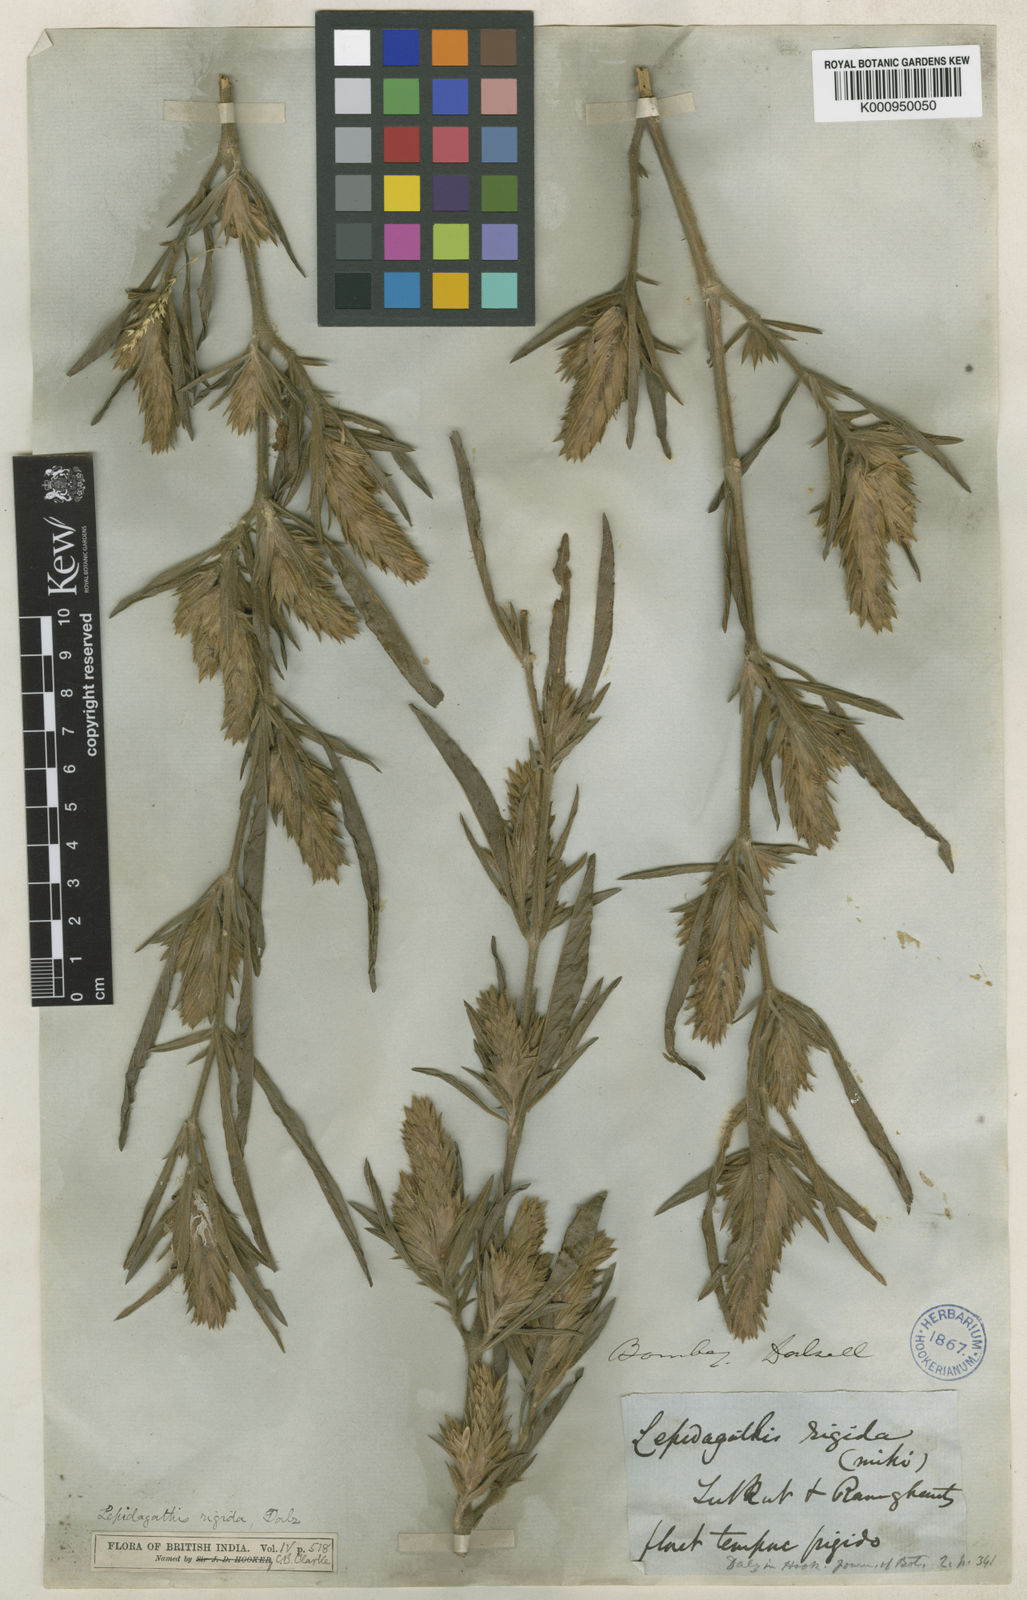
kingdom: Plantae
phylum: Tracheophyta
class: Magnoliopsida
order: Lamiales
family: Acanthaceae
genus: Lepidagathis
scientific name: Lepidagathis rigida
